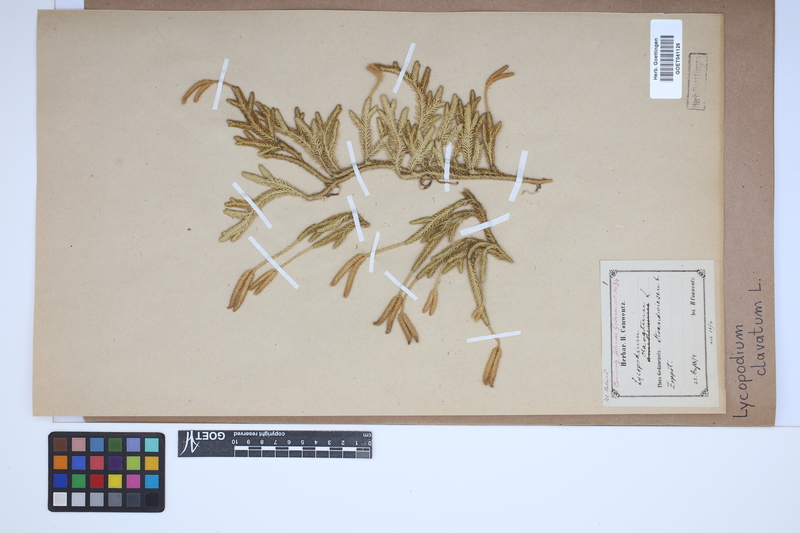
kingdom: Plantae
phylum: Tracheophyta
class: Lycopodiopsida
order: Lycopodiales
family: Lycopodiaceae
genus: Lycopodium
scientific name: Lycopodium clavatum
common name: Stag's-horn clubmoss
